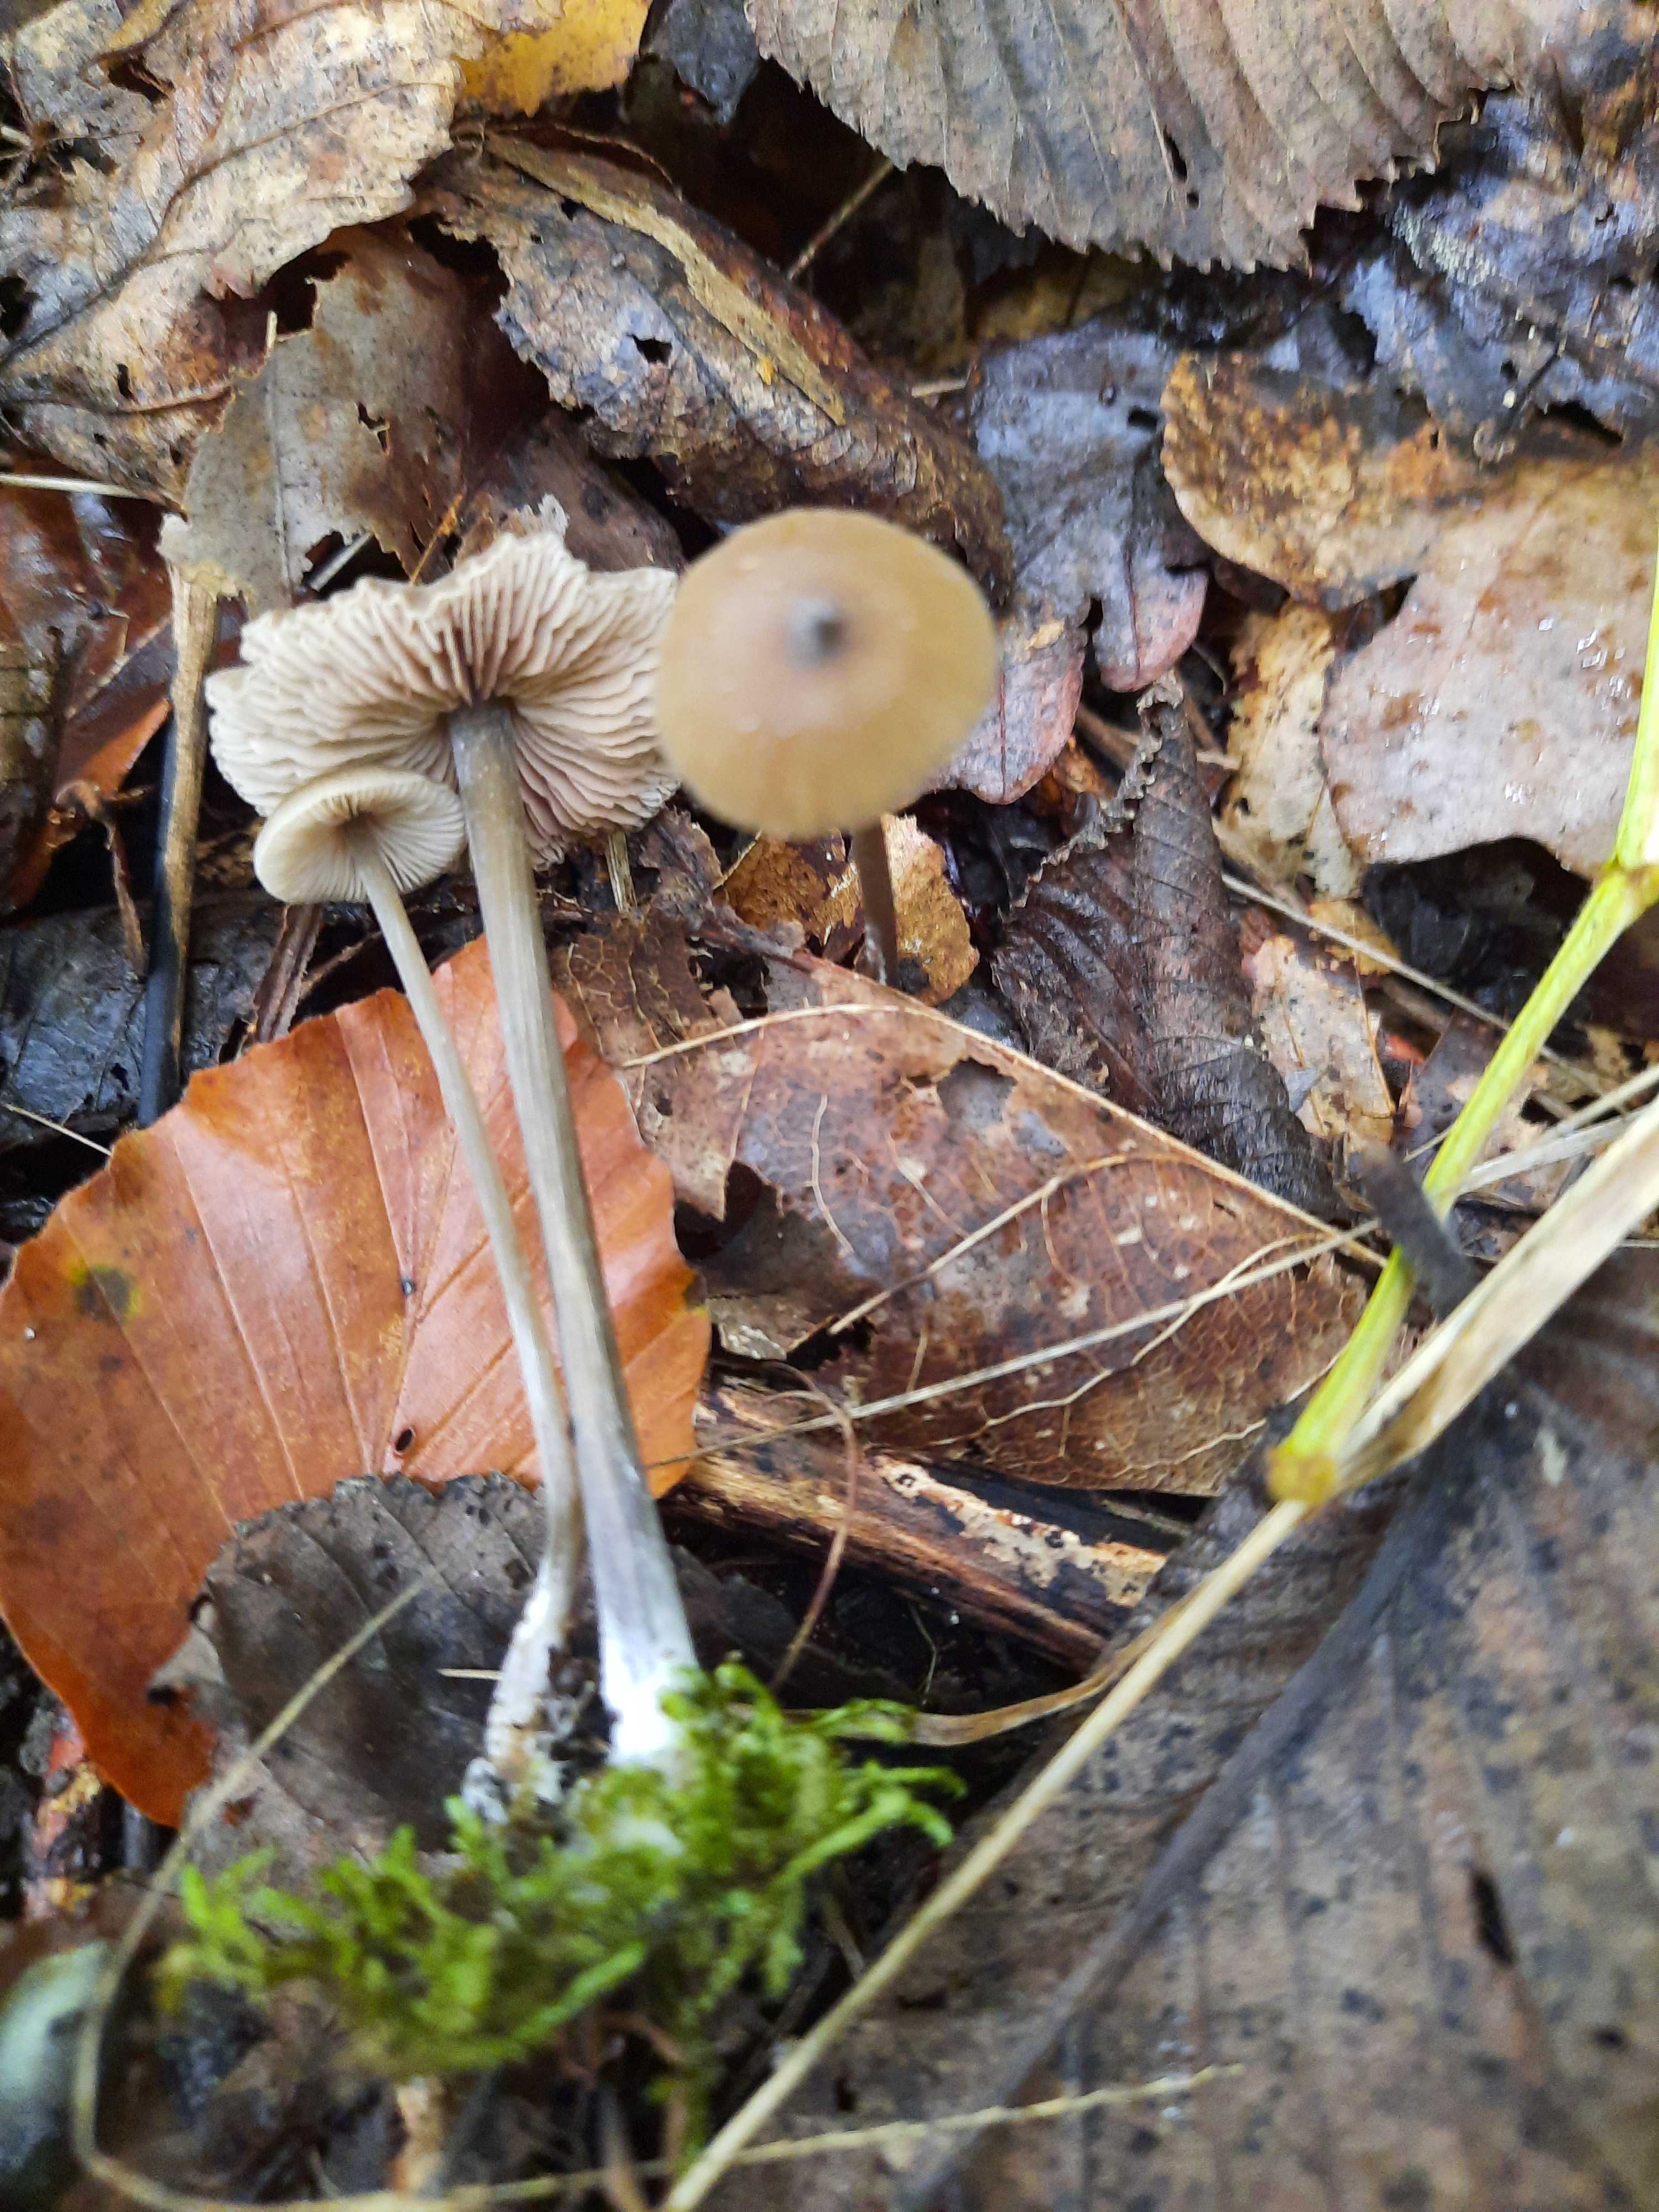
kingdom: Fungi
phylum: Basidiomycota
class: Agaricomycetes
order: Agaricales
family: Entolomataceae
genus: Entoloma
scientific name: Entoloma hebes
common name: krat-rødblad
